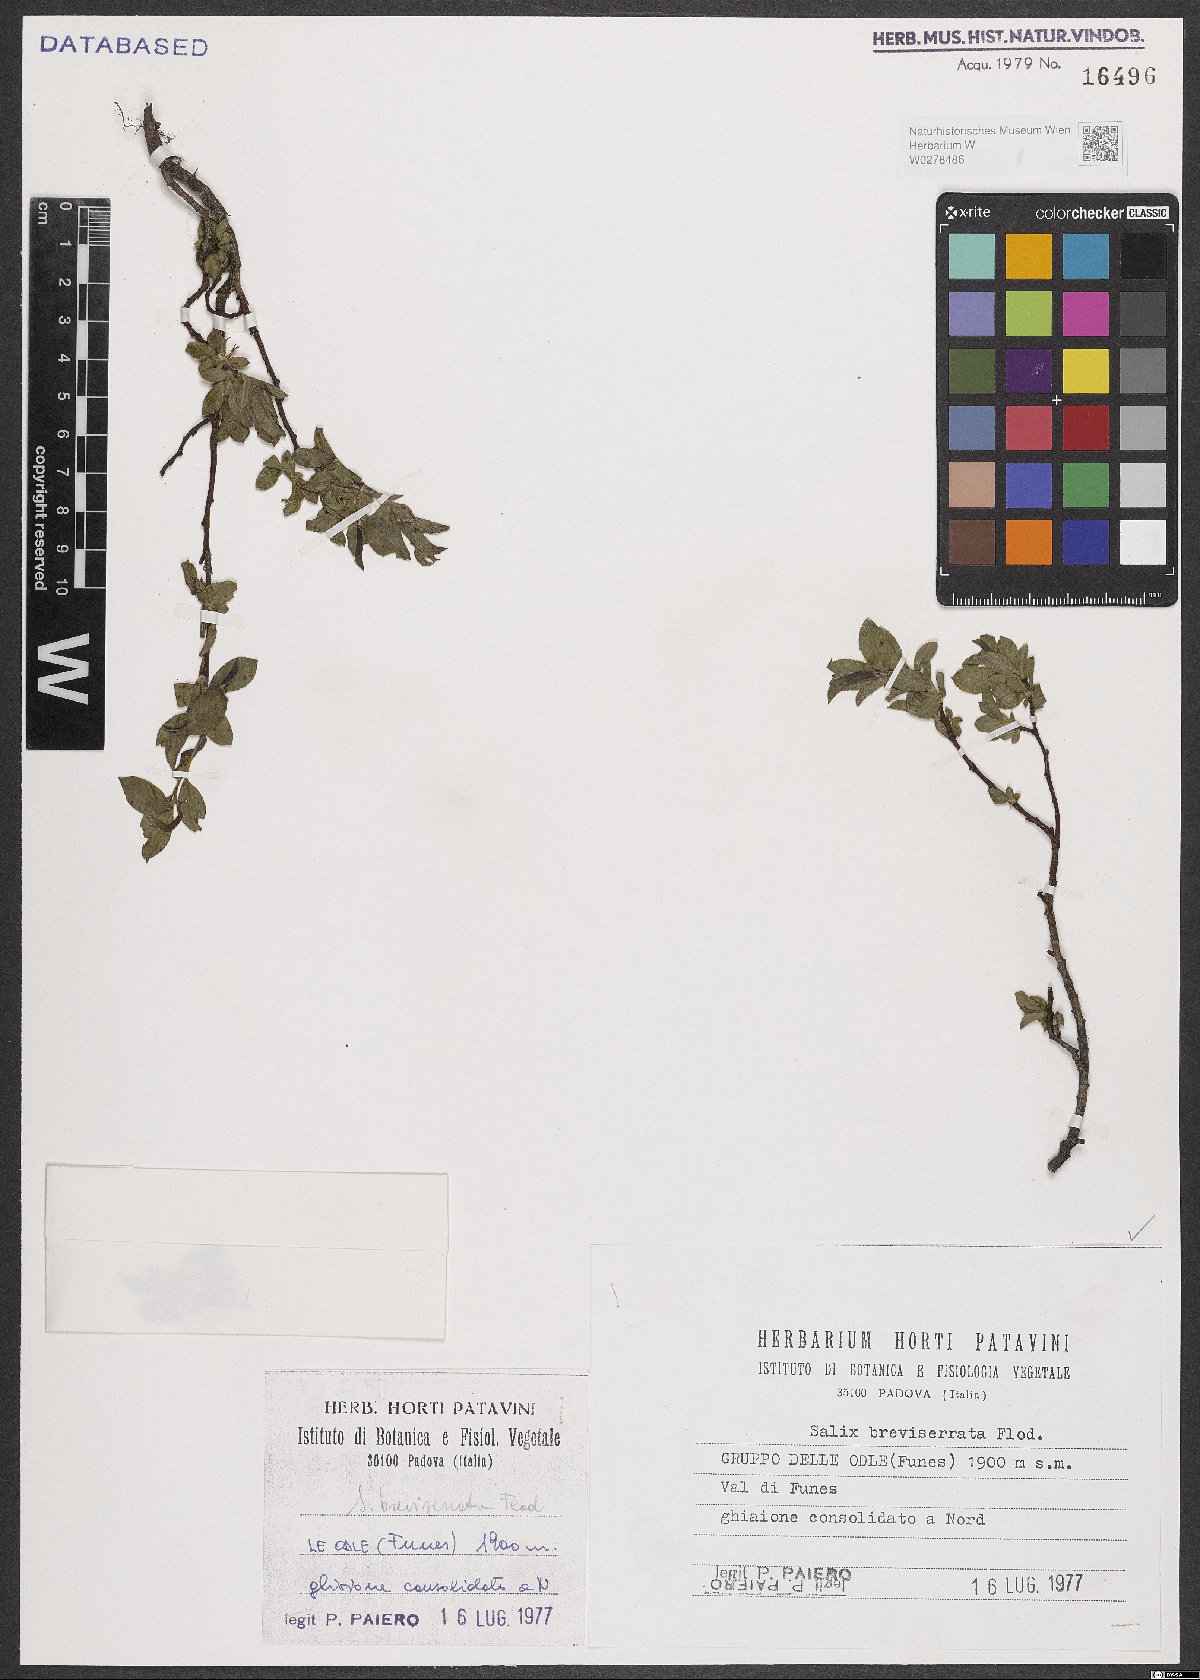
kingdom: Plantae
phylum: Tracheophyta
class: Magnoliopsida
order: Malpighiales
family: Salicaceae
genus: Salix
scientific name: Salix breviserrata
